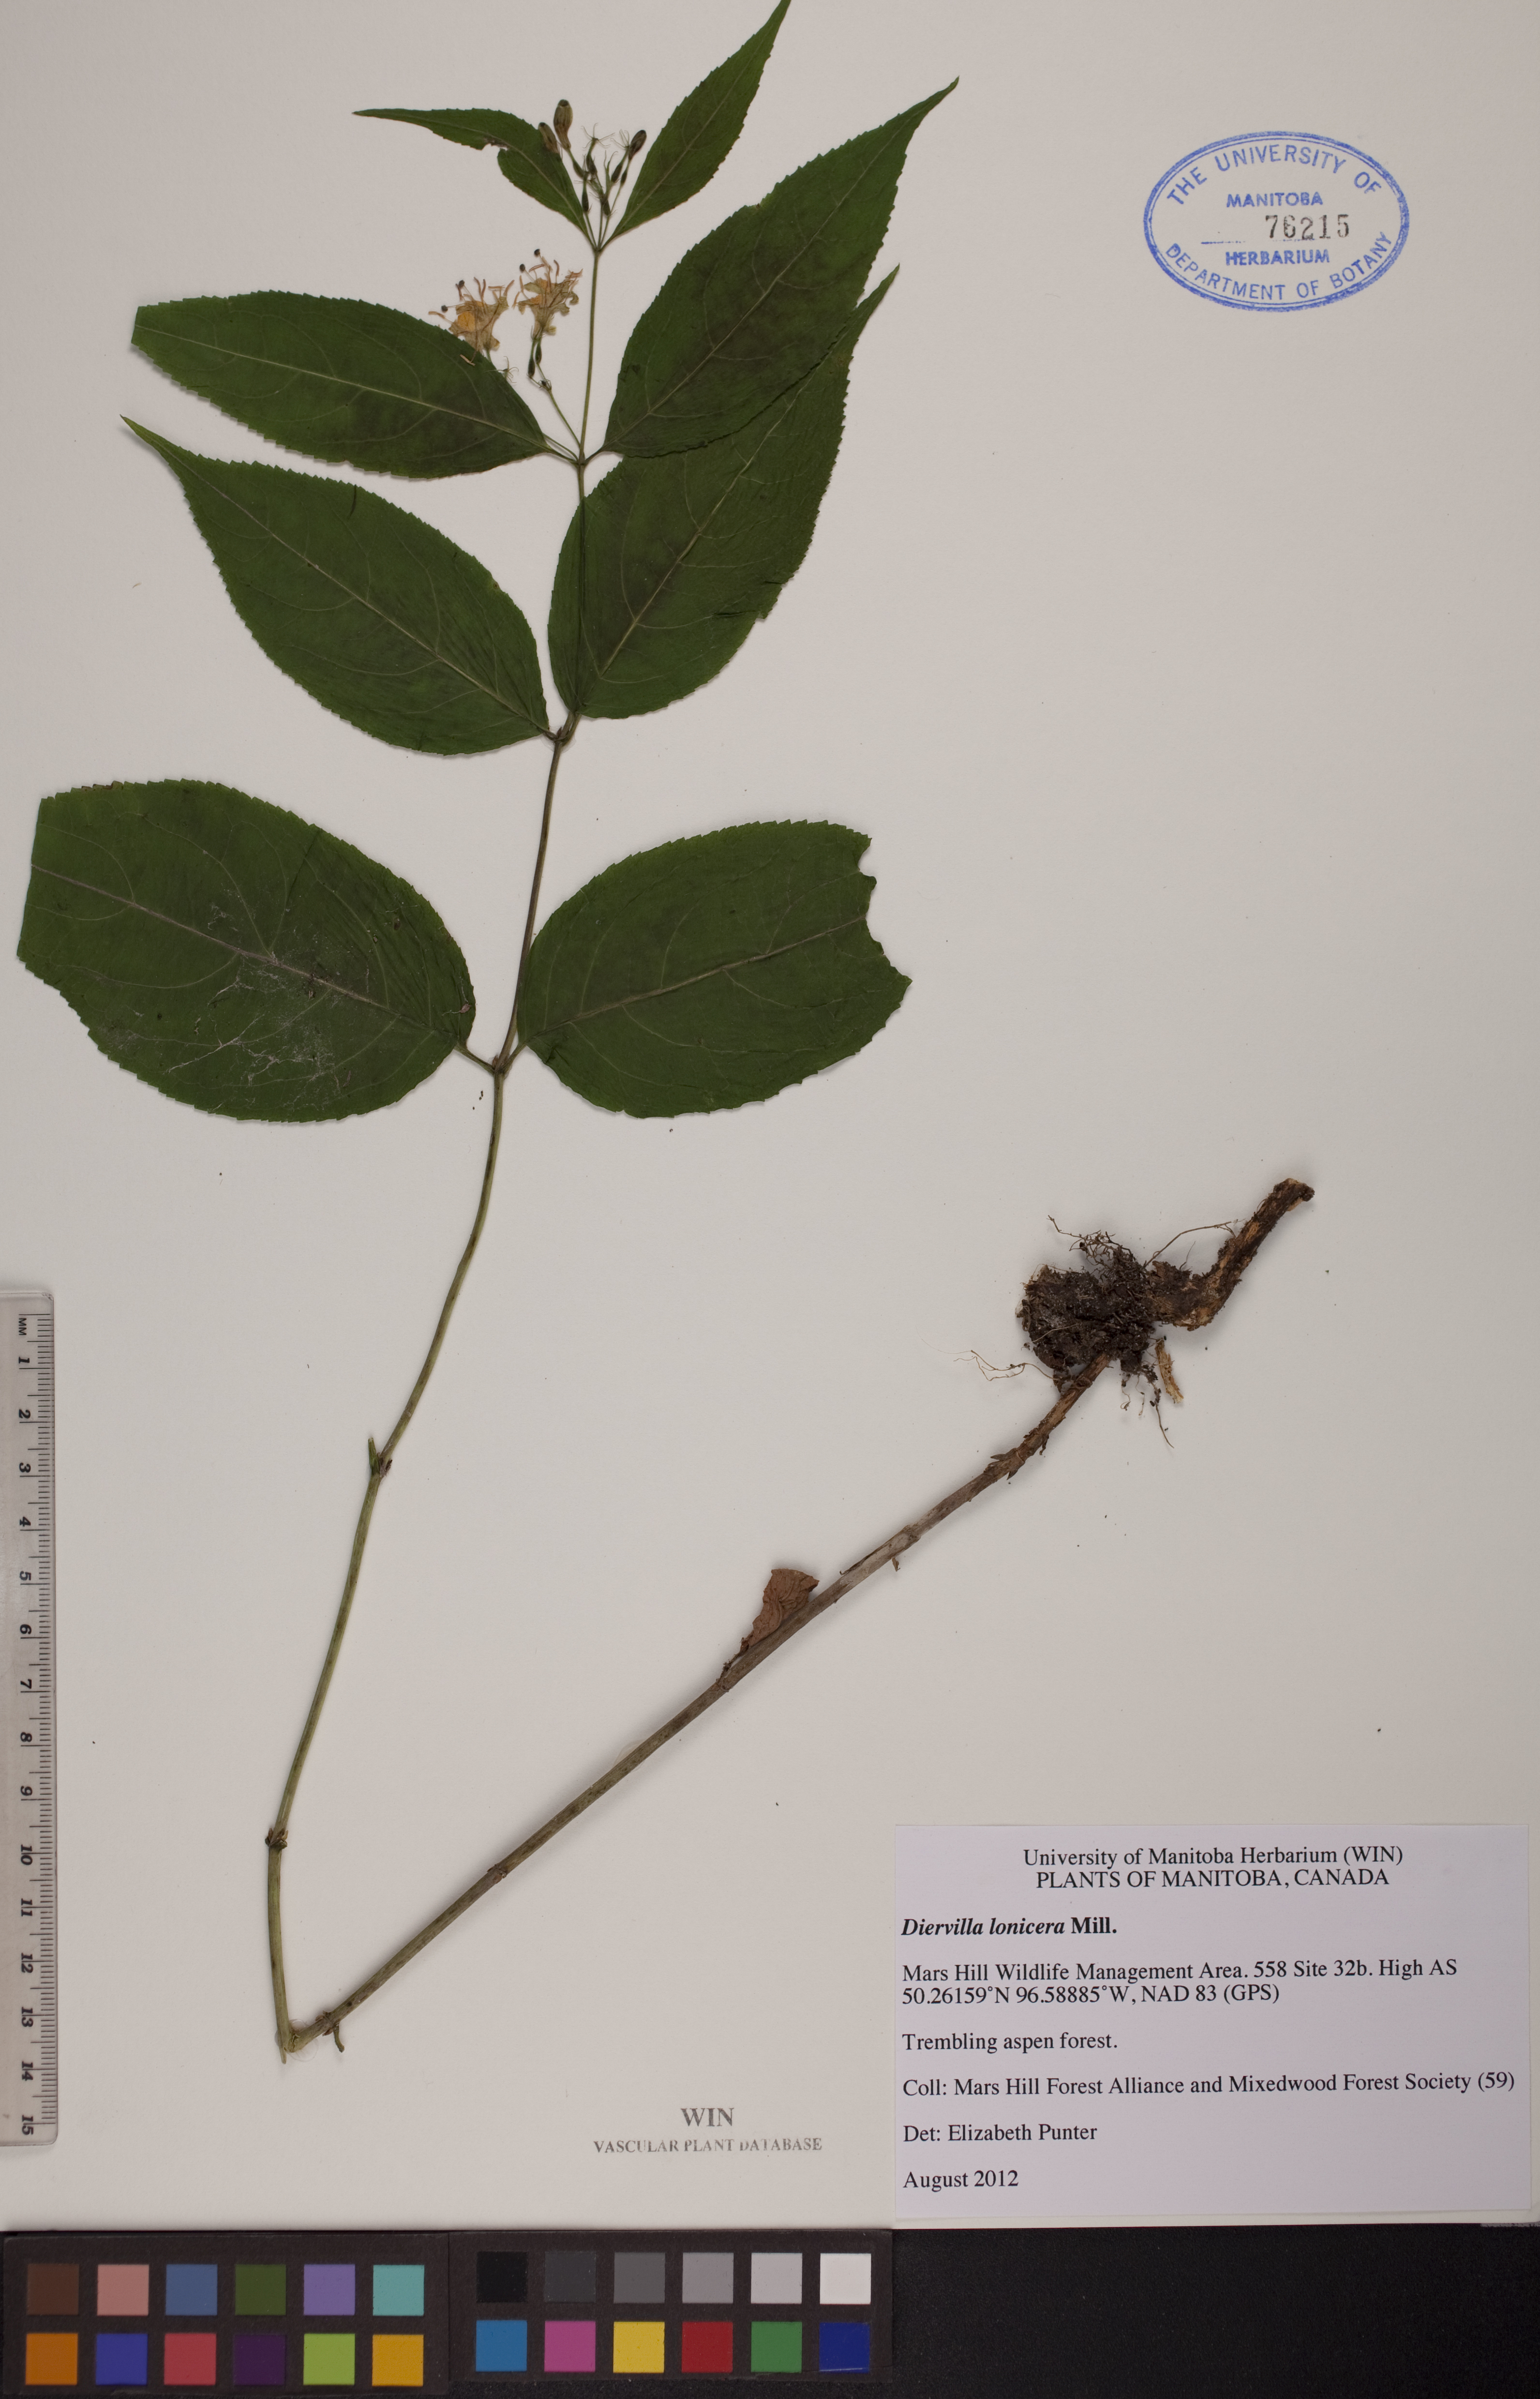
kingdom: Plantae
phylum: Tracheophyta
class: Magnoliopsida
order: Dipsacales
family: Caprifoliaceae
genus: Diervilla
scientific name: Diervilla lonicera
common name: Bush-honeysuckle
